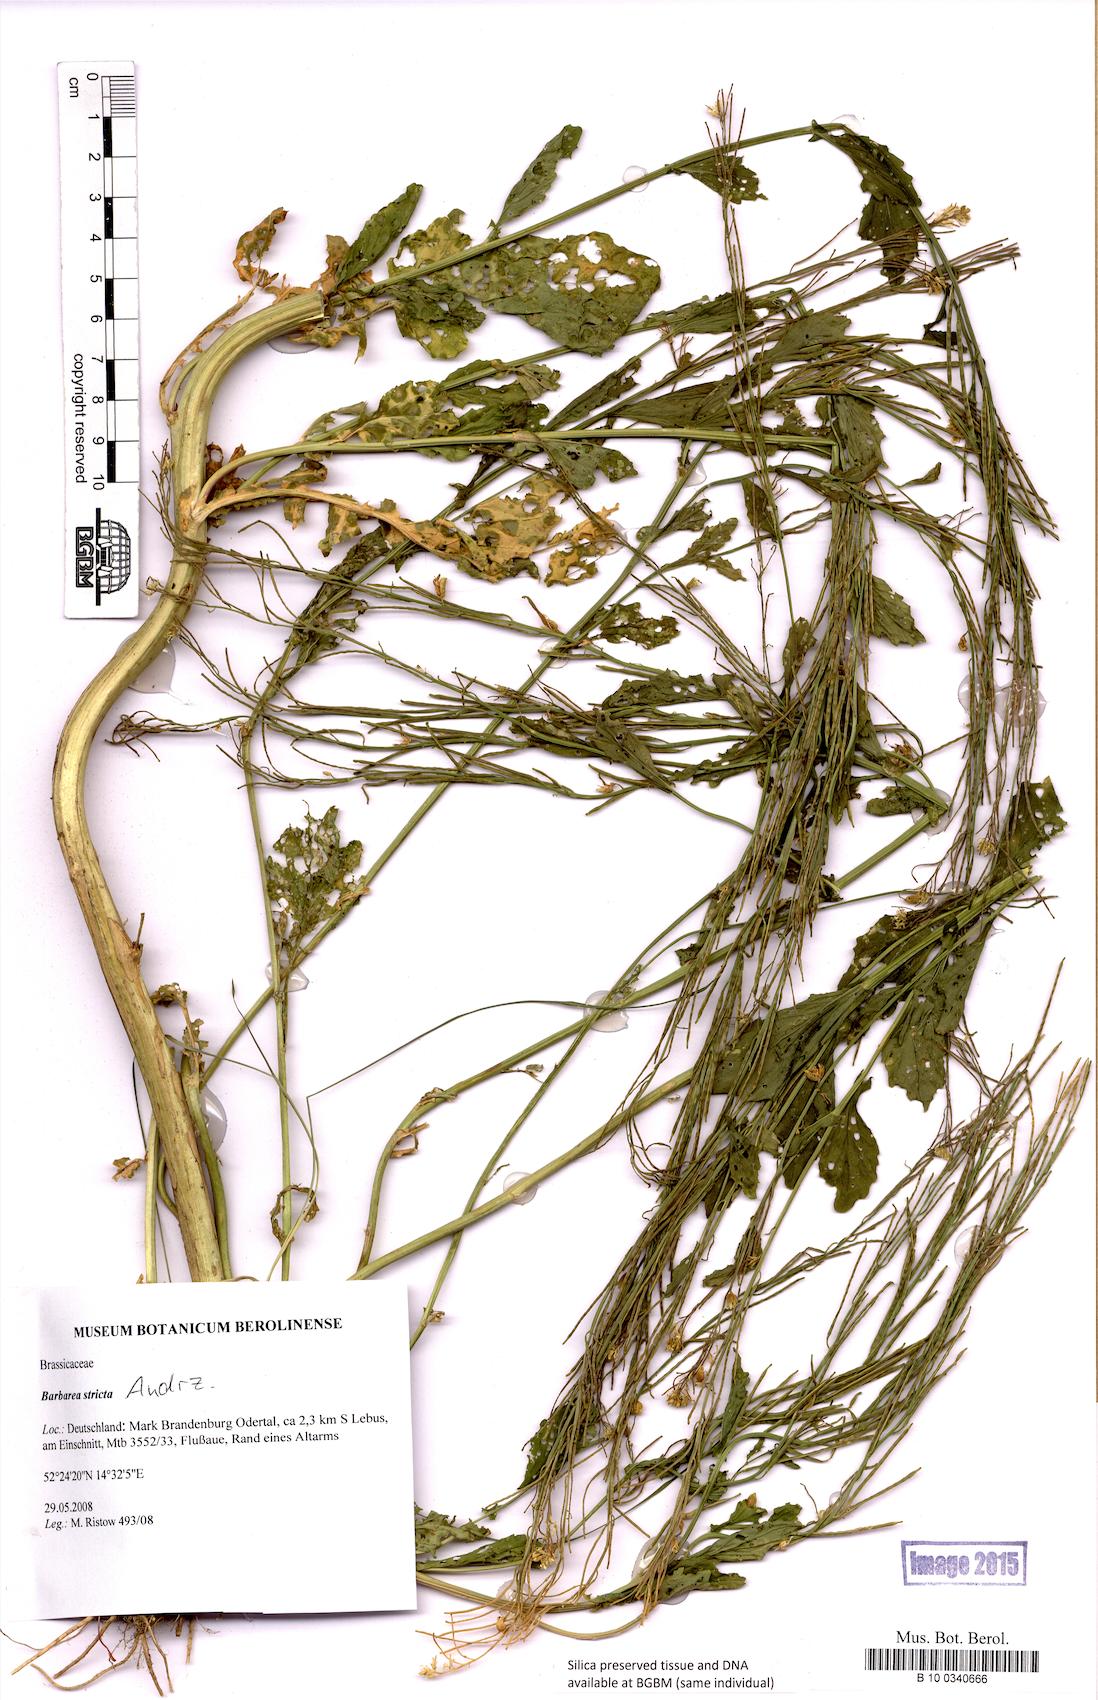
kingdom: Plantae
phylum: Tracheophyta
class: Magnoliopsida
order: Brassicales
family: Brassicaceae
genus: Barbarea
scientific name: Barbarea stricta
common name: Small-flowered winter-cress
